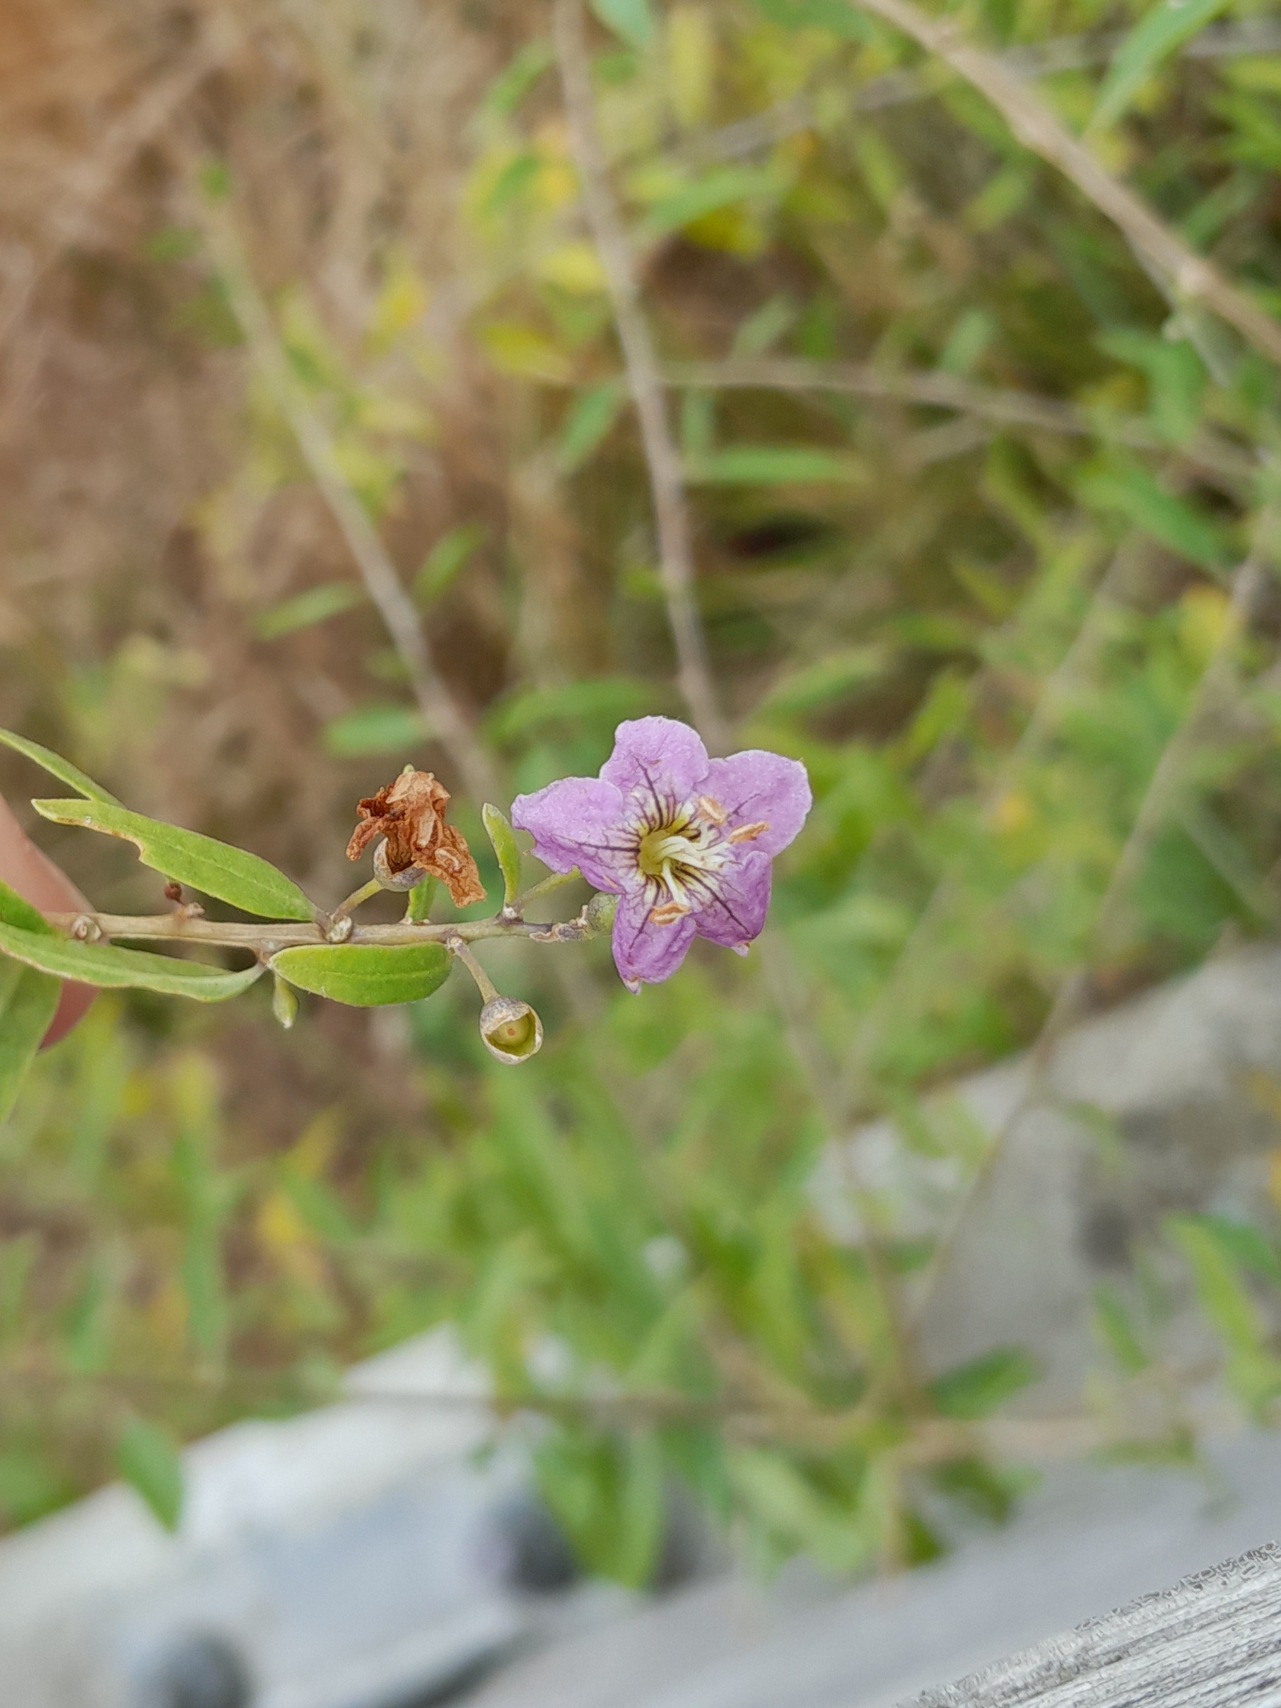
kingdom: Plantae
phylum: Tracheophyta
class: Magnoliopsida
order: Solanales
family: Solanaceae
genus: Lycium
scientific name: Lycium barbarum
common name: Bukketorn
